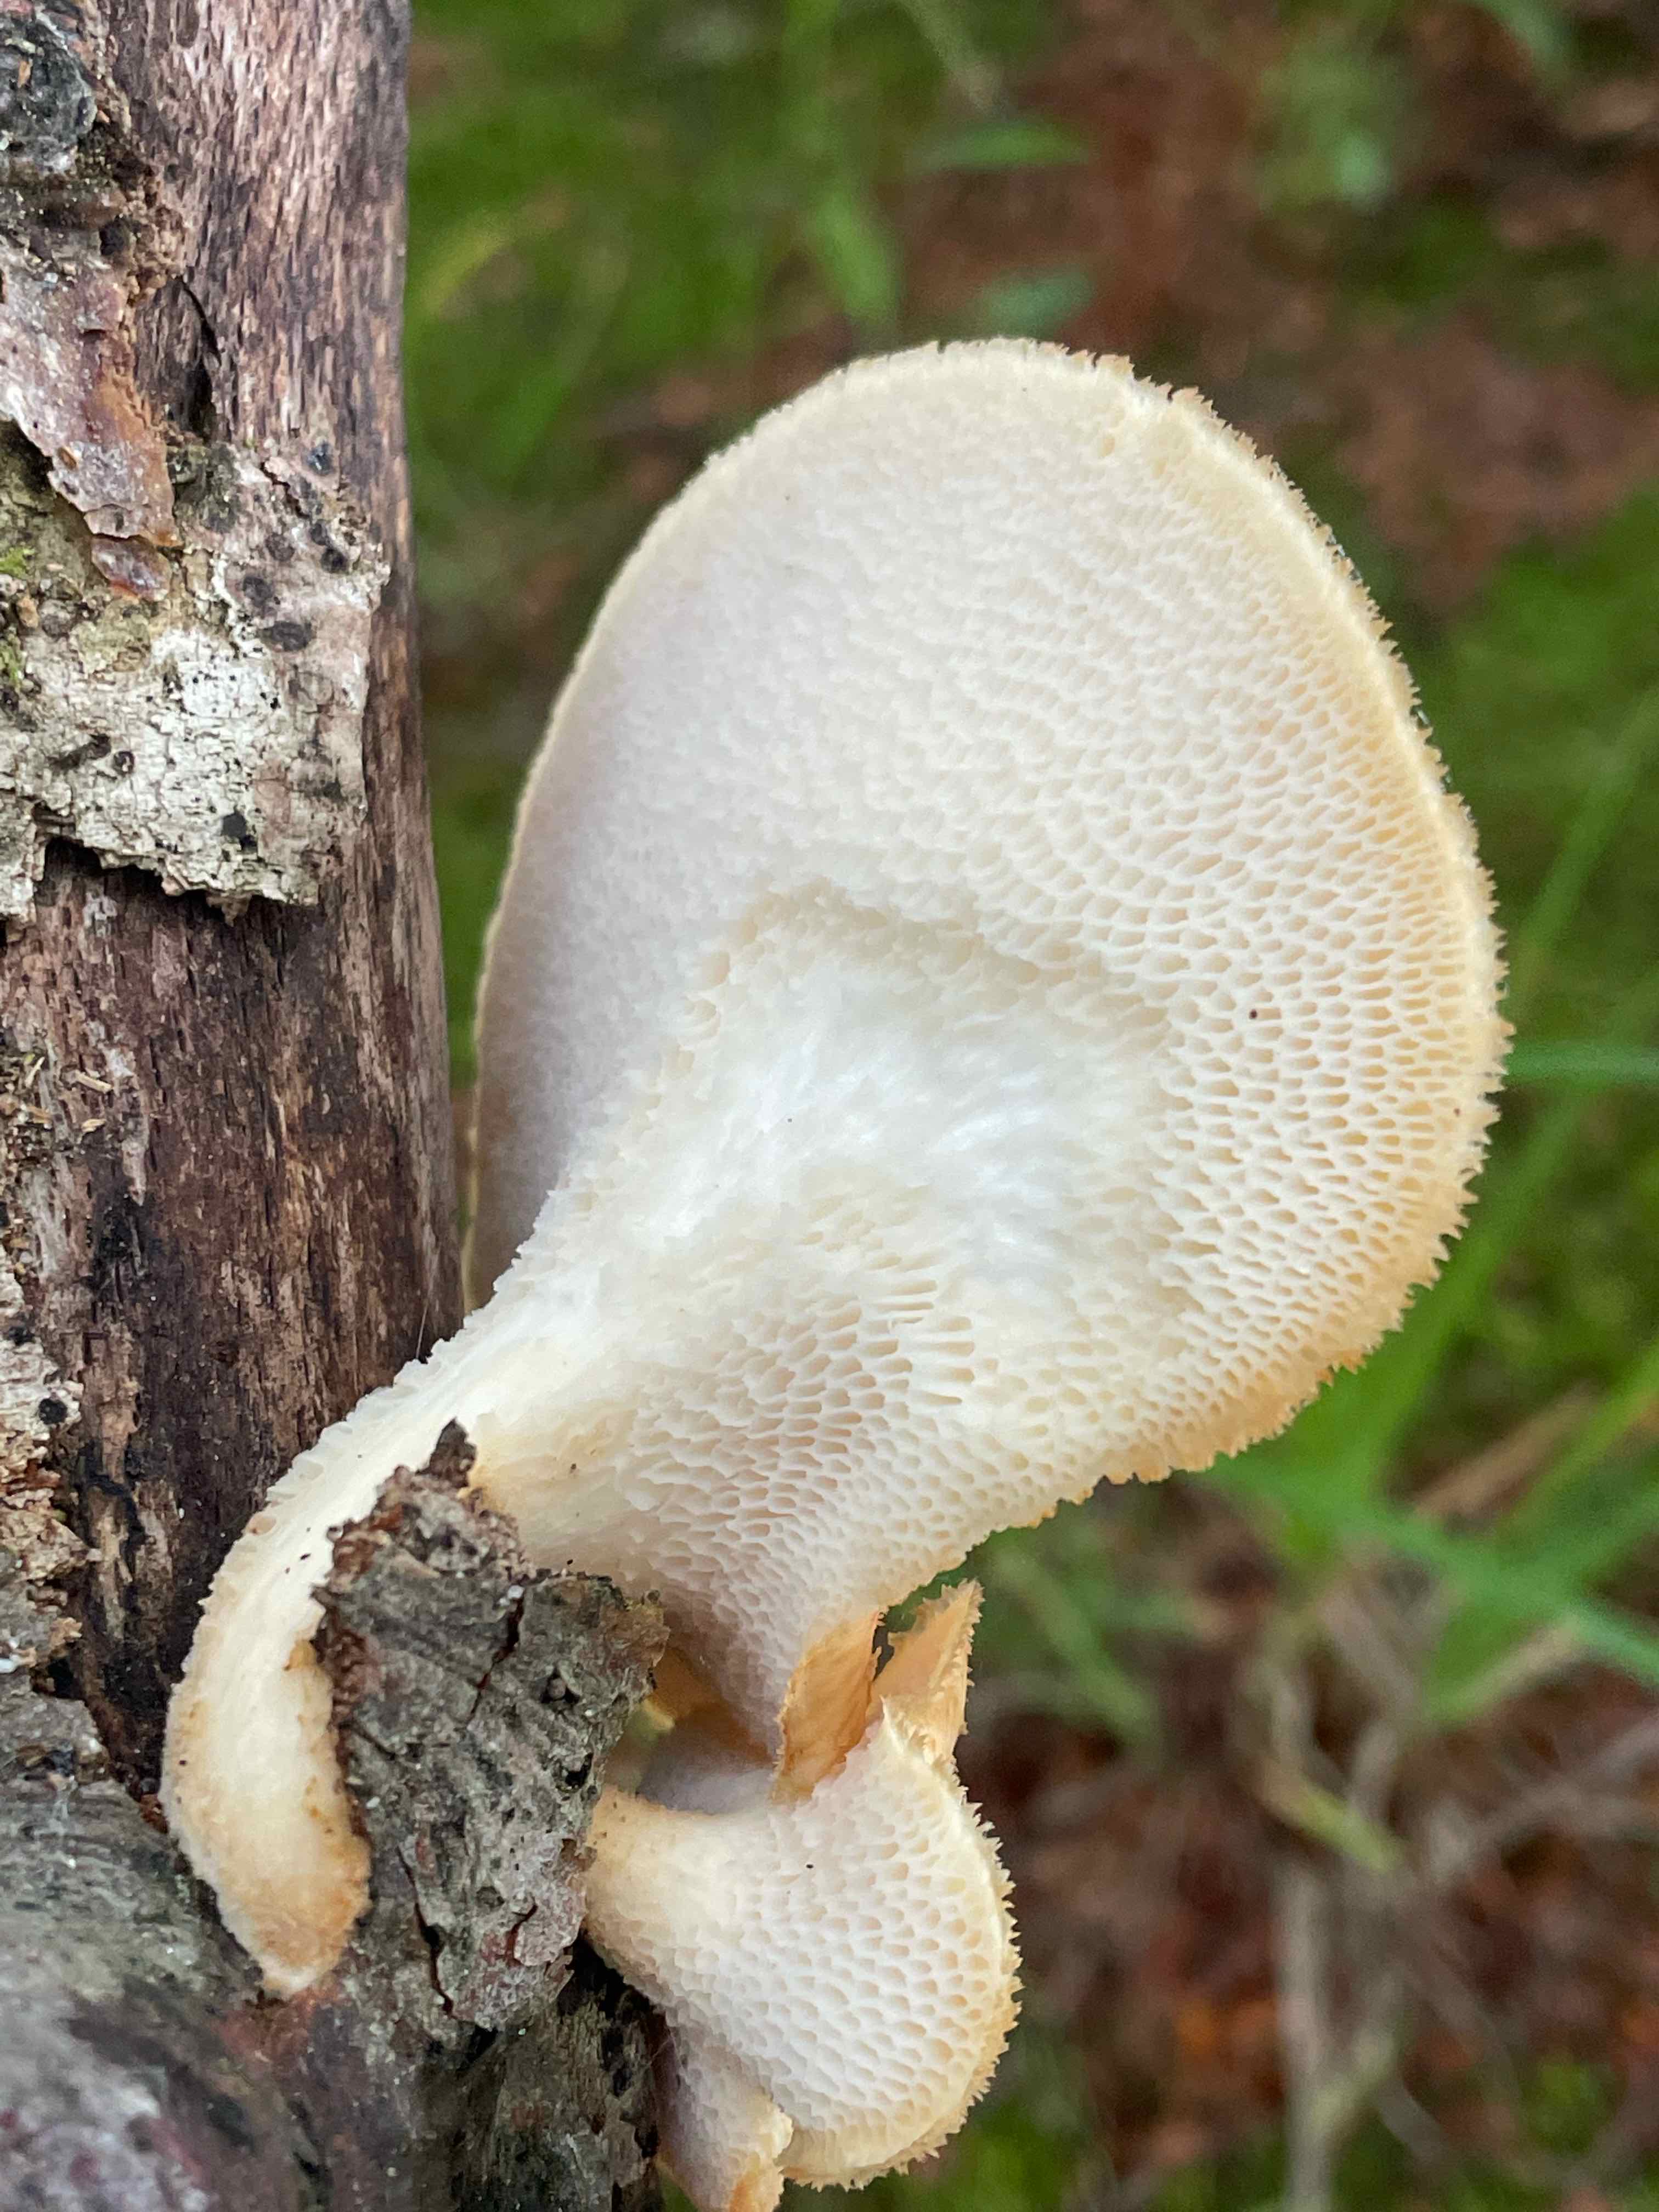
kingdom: Fungi
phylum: Basidiomycota
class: Agaricomycetes
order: Polyporales
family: Polyporaceae
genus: Polyporus
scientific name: Polyporus tuberaster
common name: knoldet stilkporesvamp
